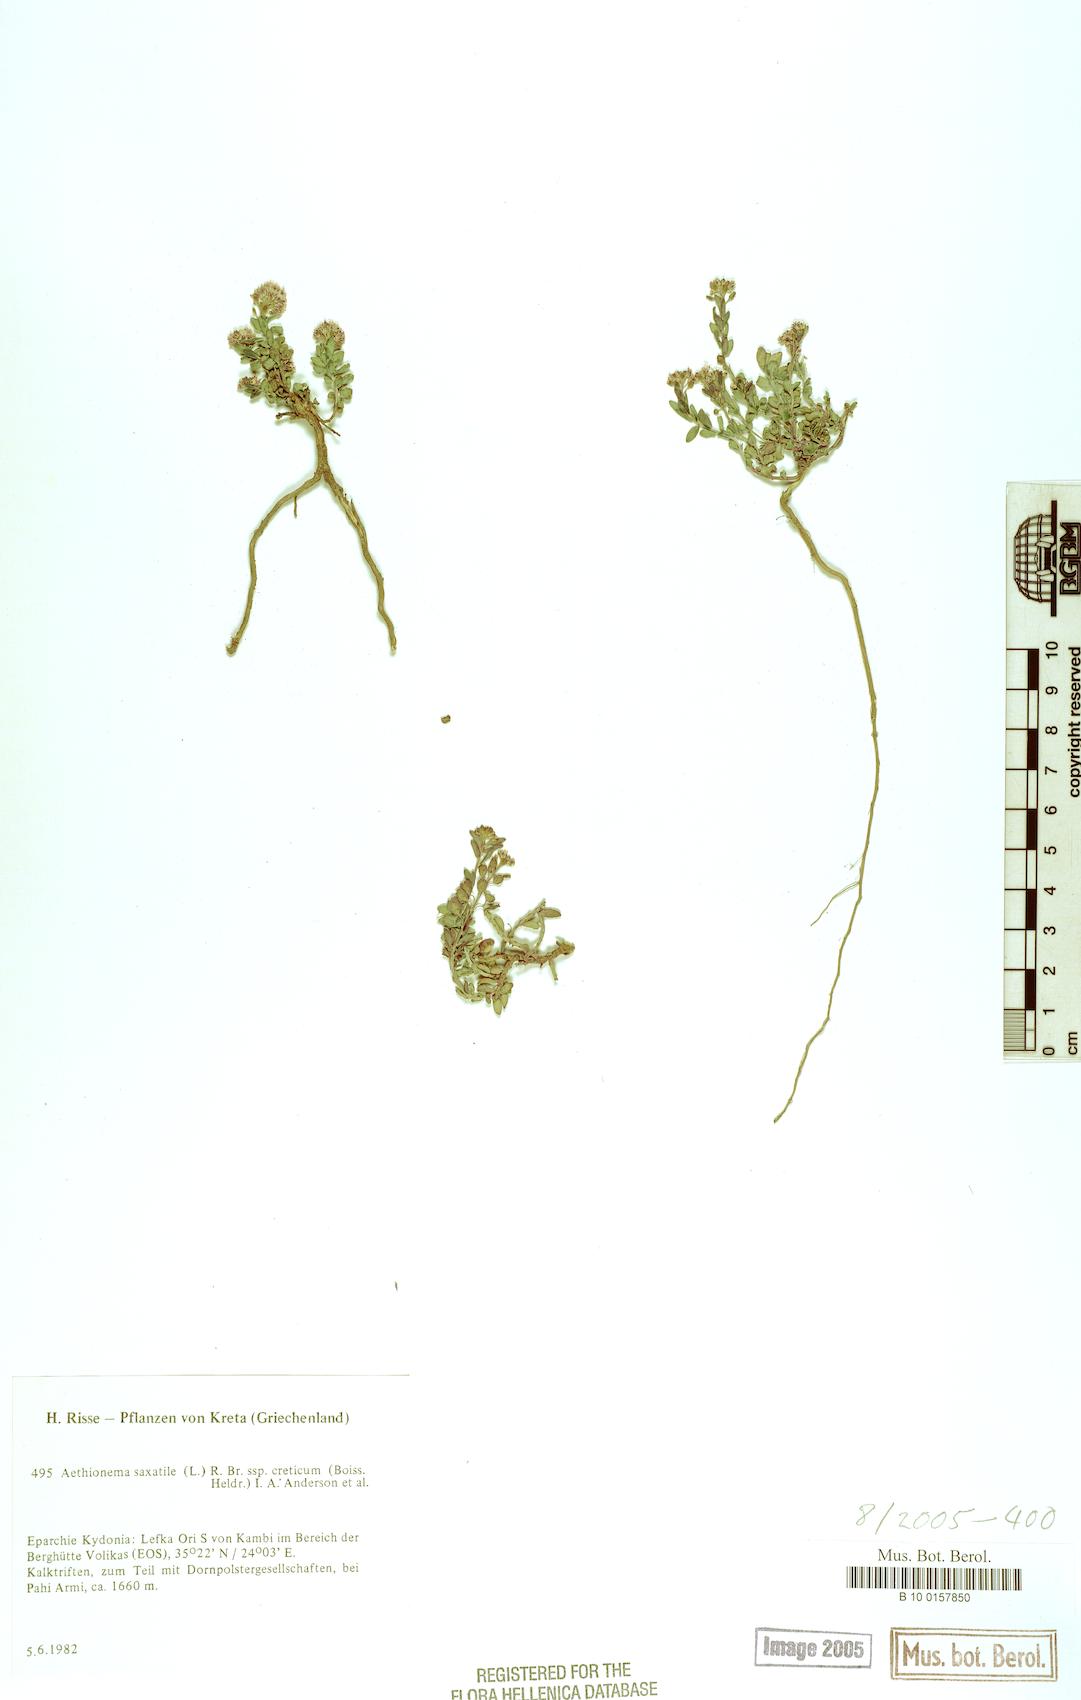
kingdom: Plantae
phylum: Tracheophyta
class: Magnoliopsida
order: Brassicales
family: Brassicaceae
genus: Aethionema
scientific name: Aethionema saxatile
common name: Burnt candytuft
